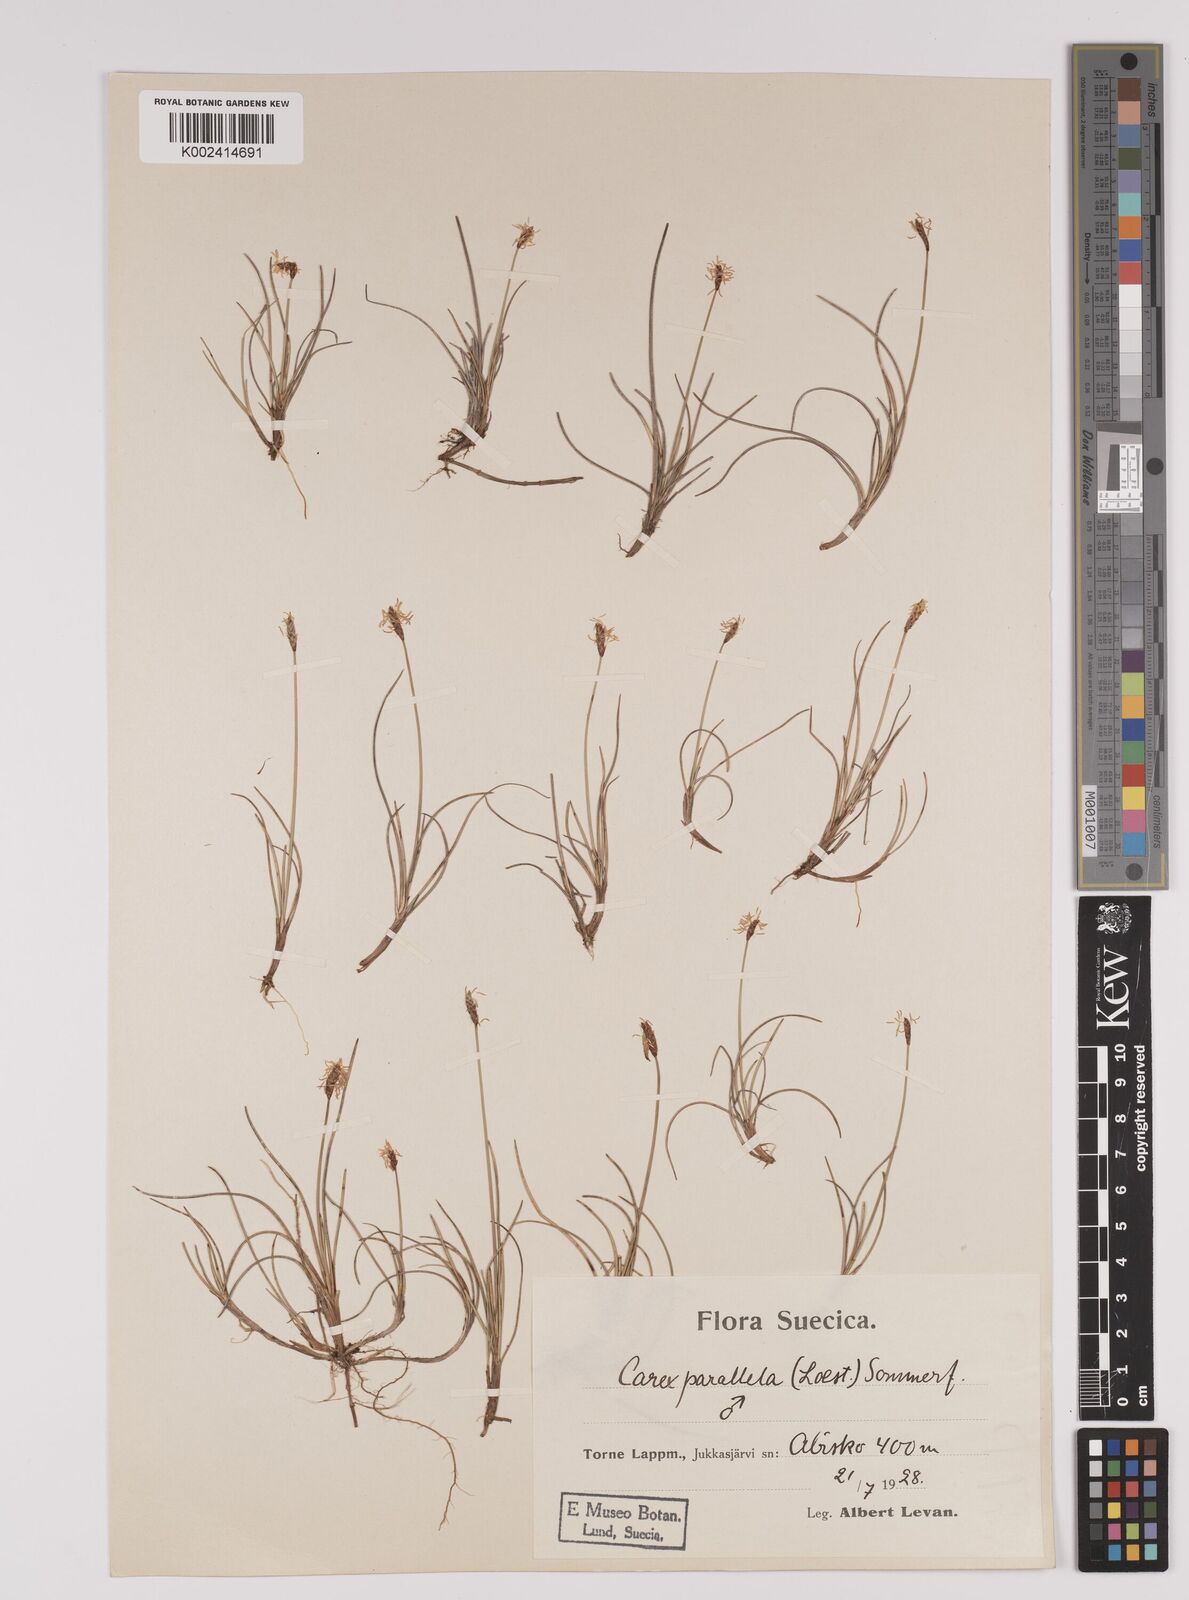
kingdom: Plantae
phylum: Tracheophyta
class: Liliopsida
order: Poales
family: Cyperaceae
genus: Carex
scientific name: Carex parallela
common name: Parallel sedge
